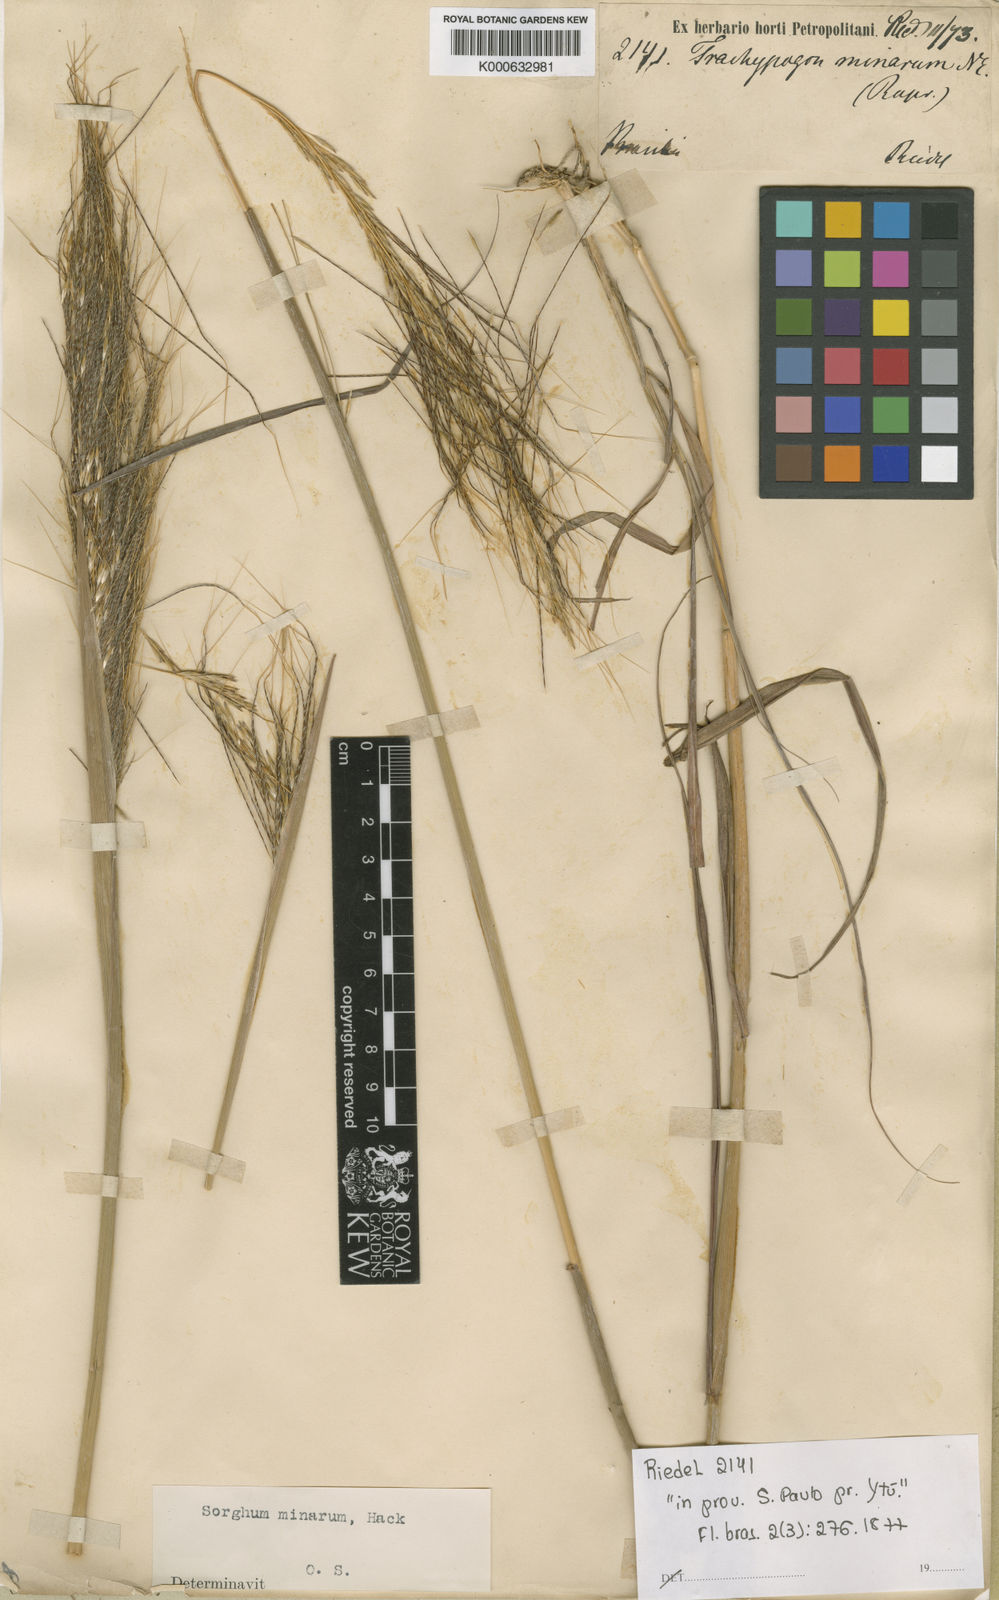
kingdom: Plantae
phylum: Tracheophyta
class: Liliopsida
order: Poales
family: Poaceae
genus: Sorghastrum
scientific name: Sorghastrum minarum
